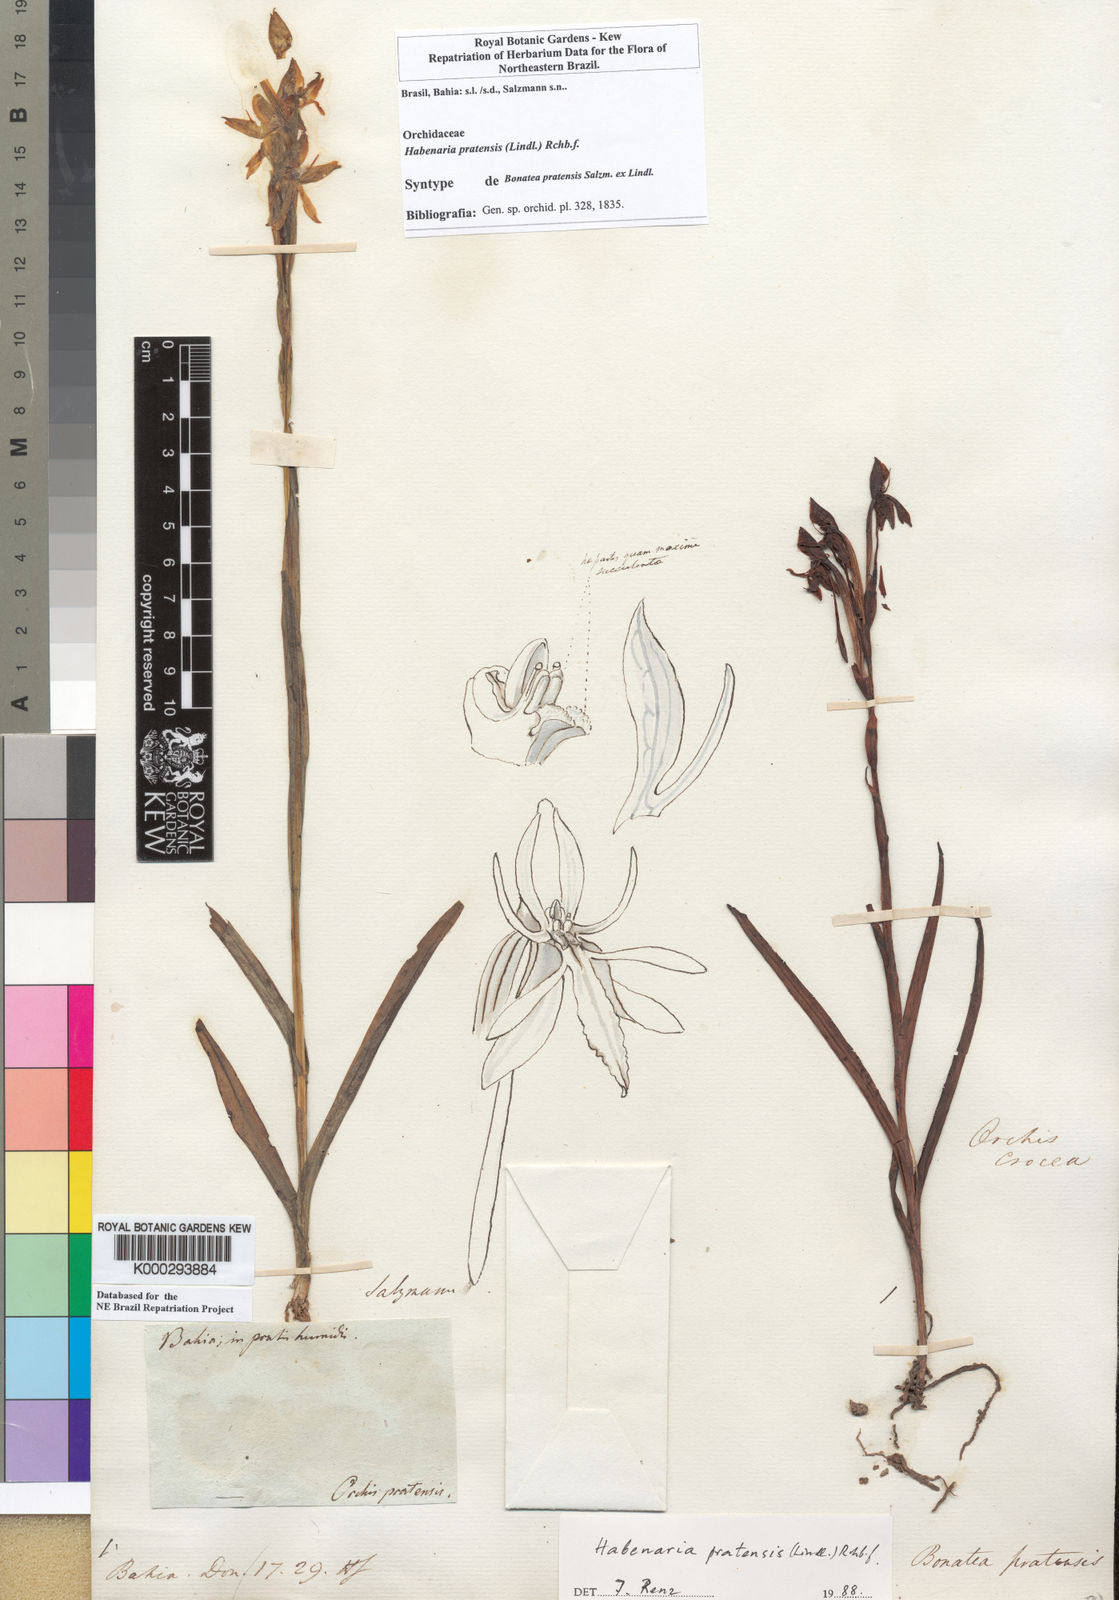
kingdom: Plantae
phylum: Tracheophyta
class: Liliopsida
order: Asparagales
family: Orchidaceae
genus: Habenaria
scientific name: Habenaria pratensis
